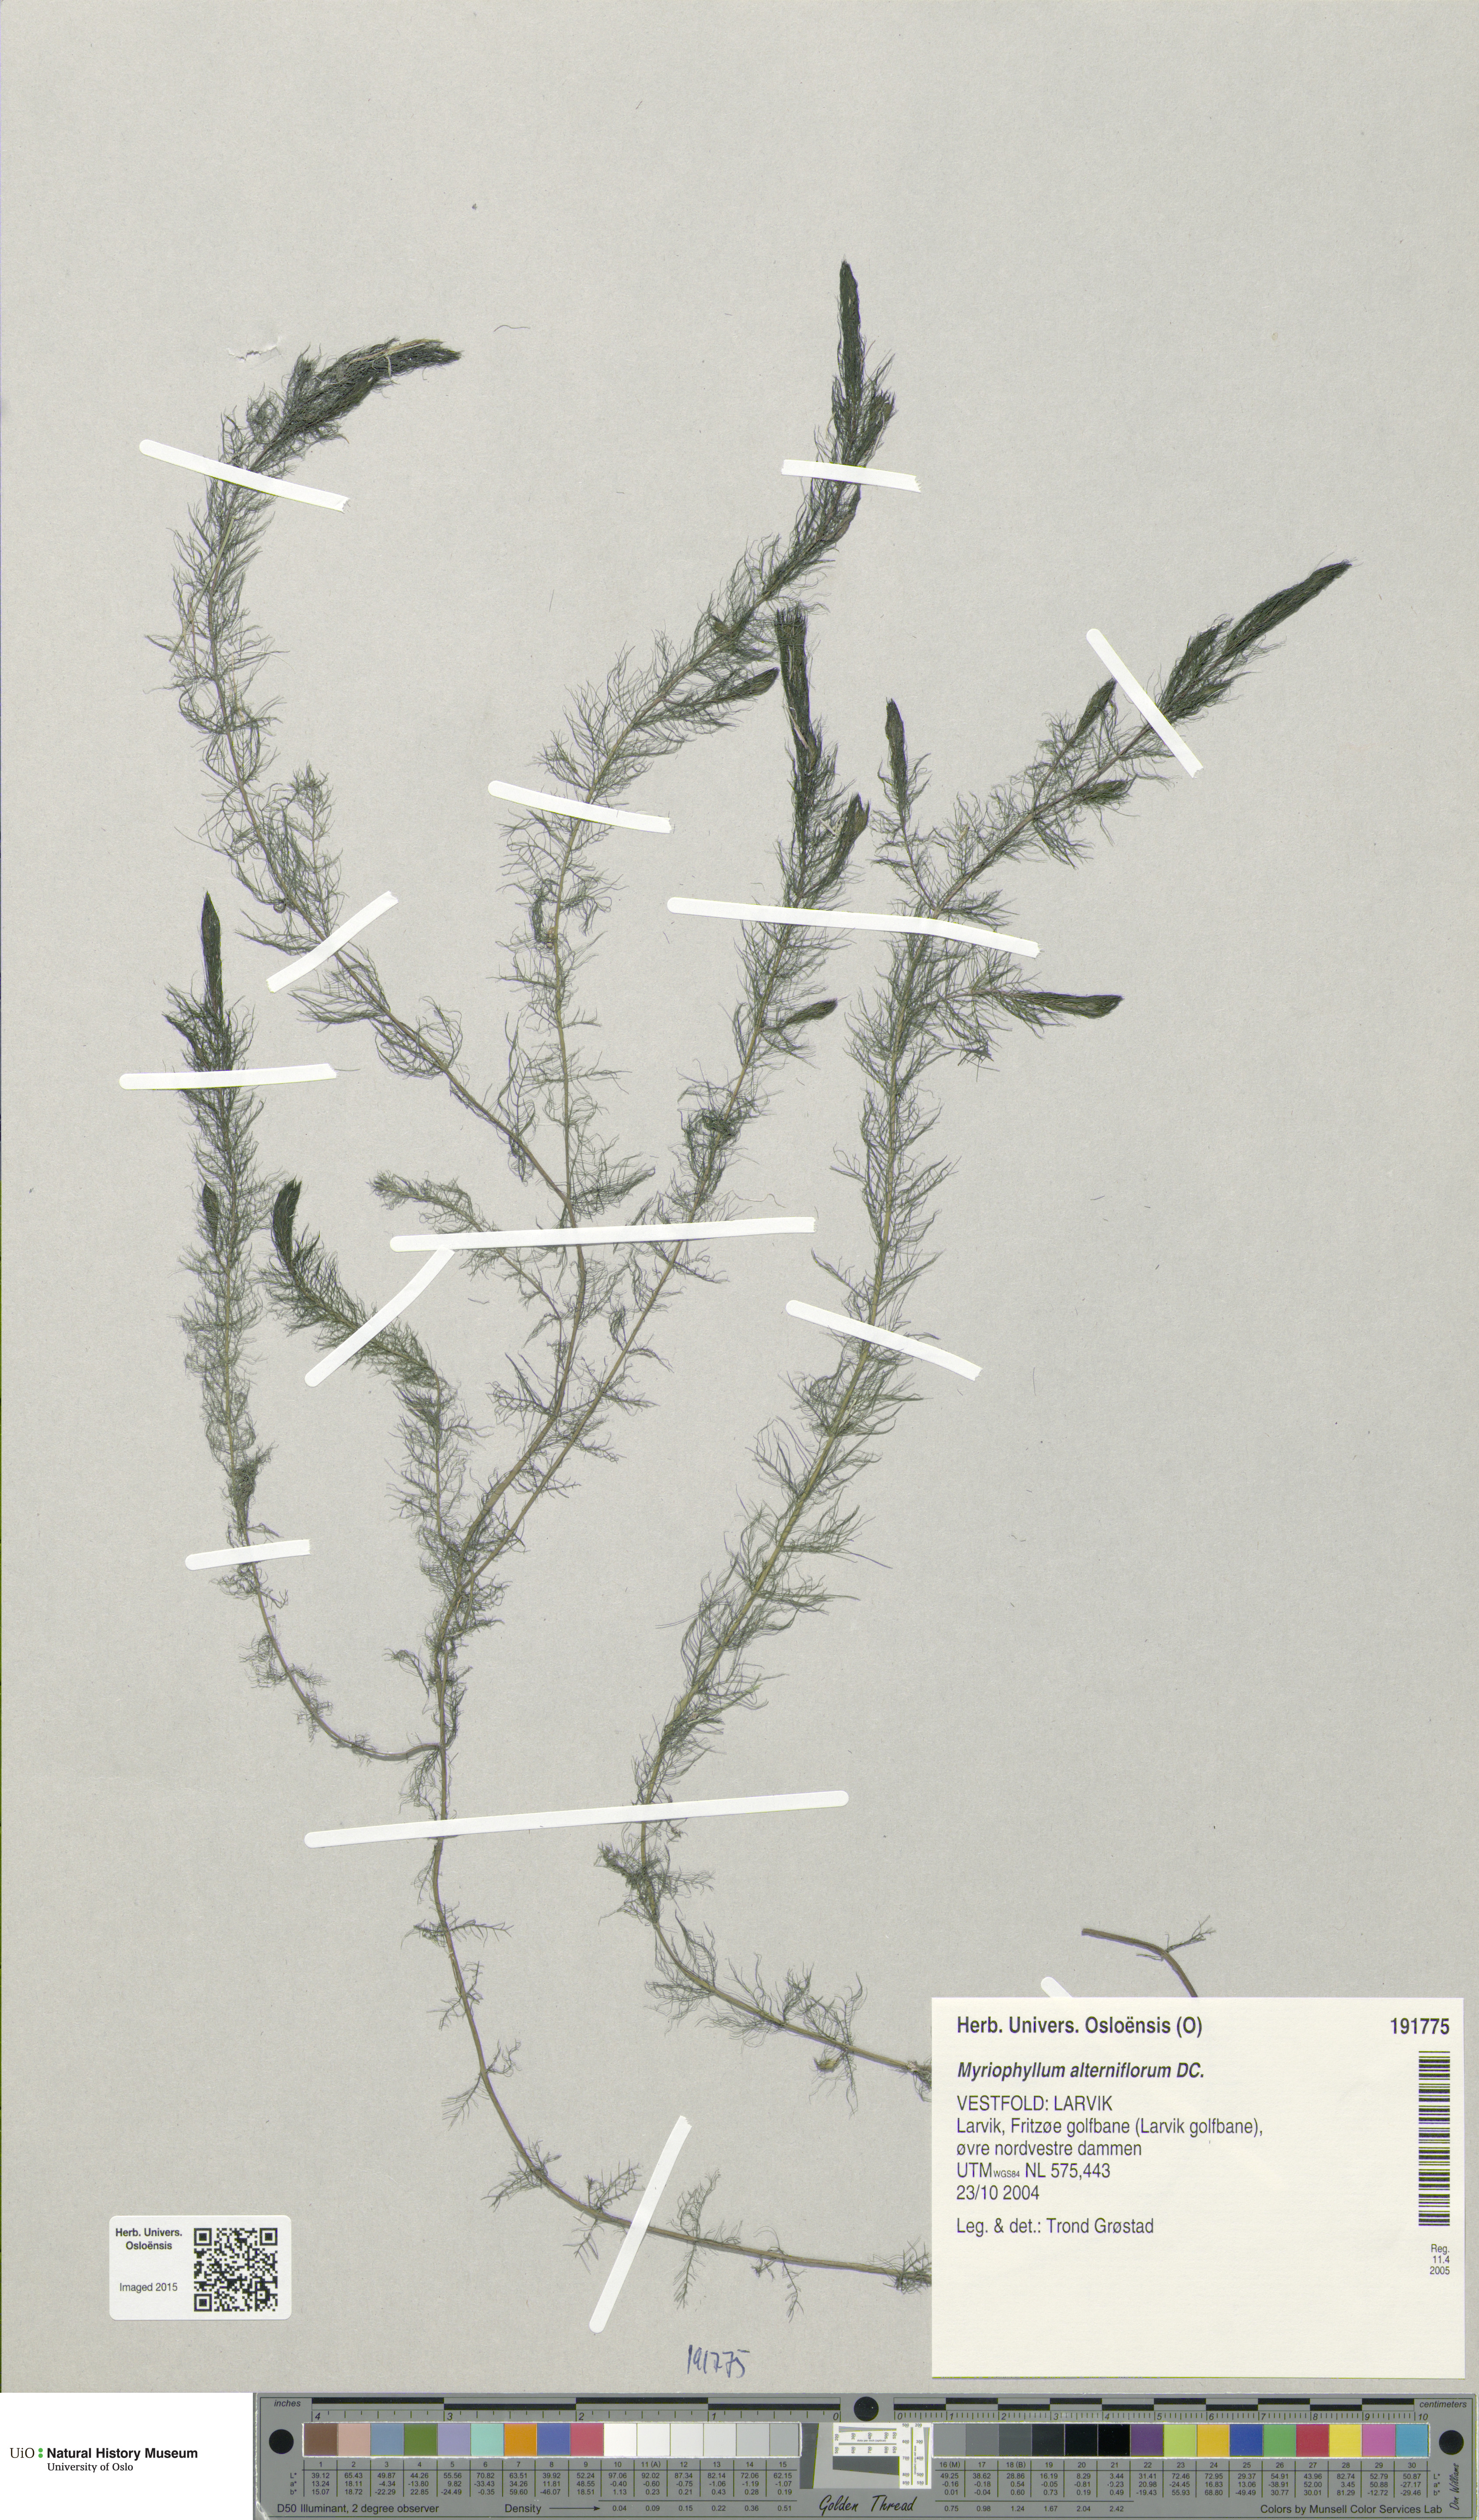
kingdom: Plantae
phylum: Tracheophyta
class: Magnoliopsida
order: Saxifragales
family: Haloragaceae
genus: Myriophyllum
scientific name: Myriophyllum alterniflorum
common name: Alternate water-milfoil
